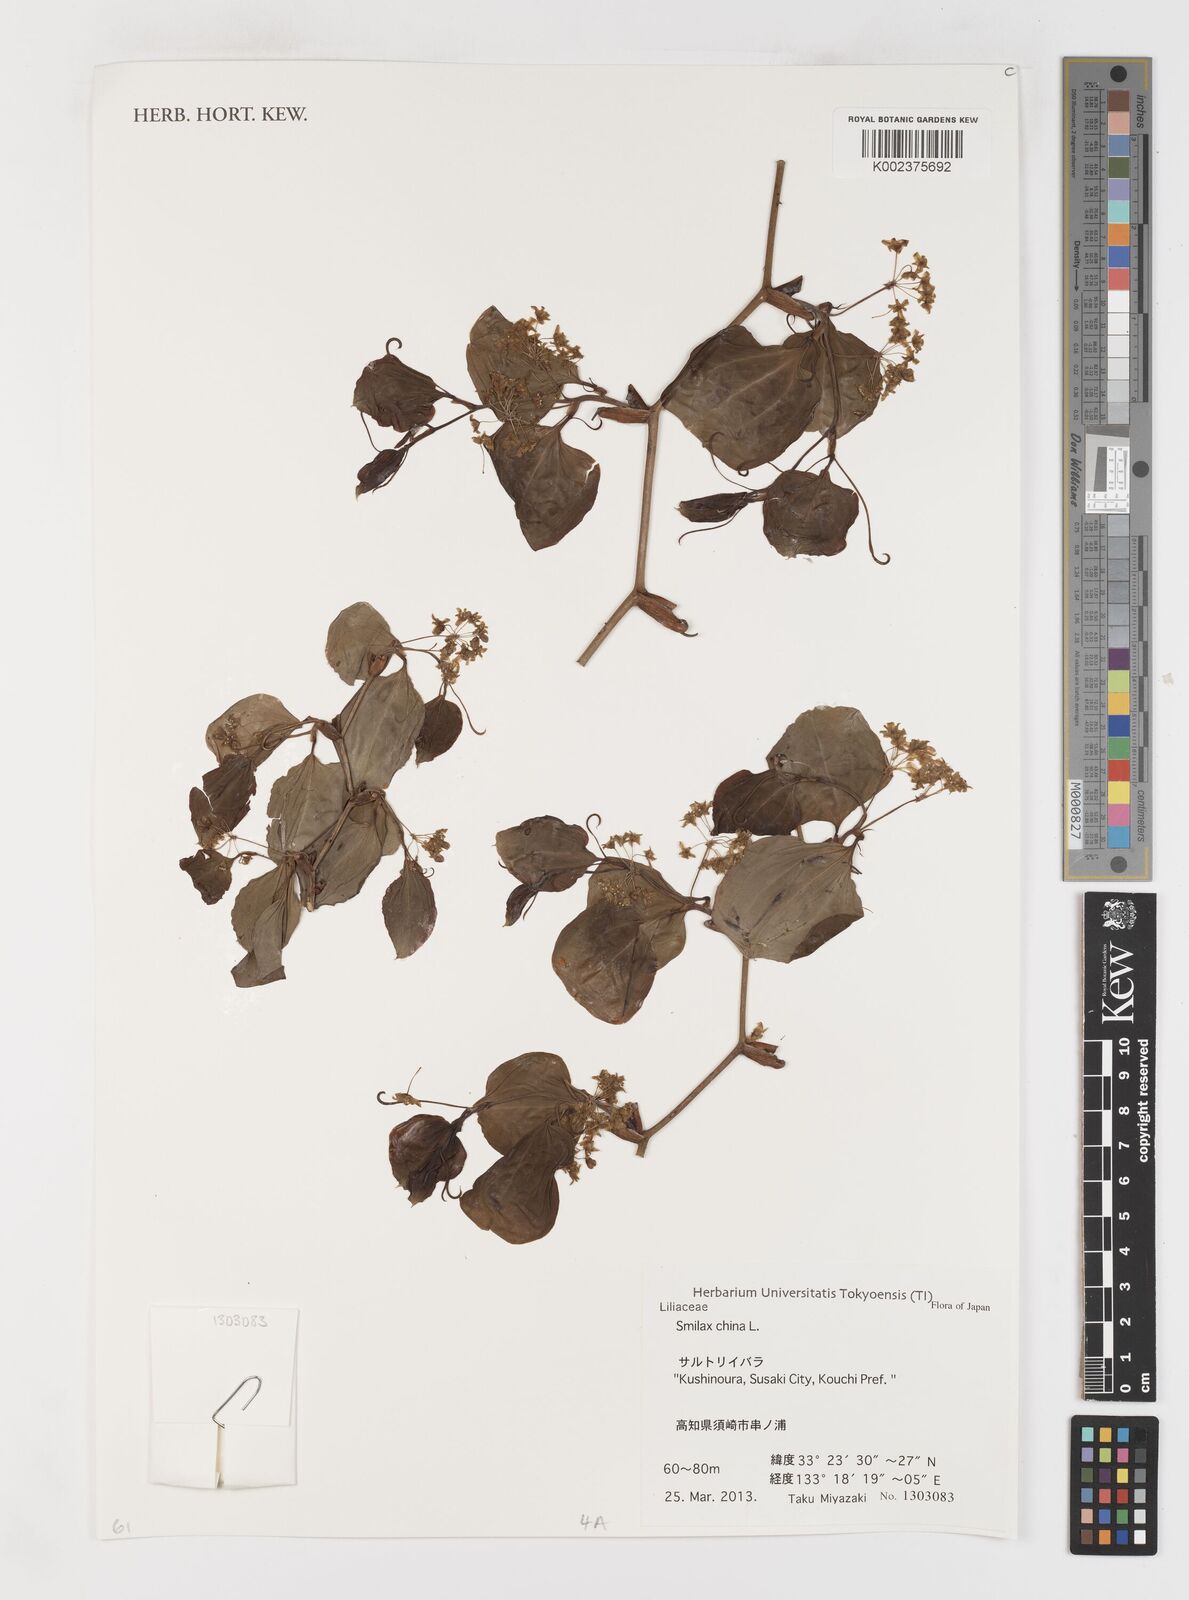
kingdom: Plantae
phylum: Tracheophyta
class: Liliopsida
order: Liliales
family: Smilacaceae
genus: Smilax
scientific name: Smilax china
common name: Chinaroot
